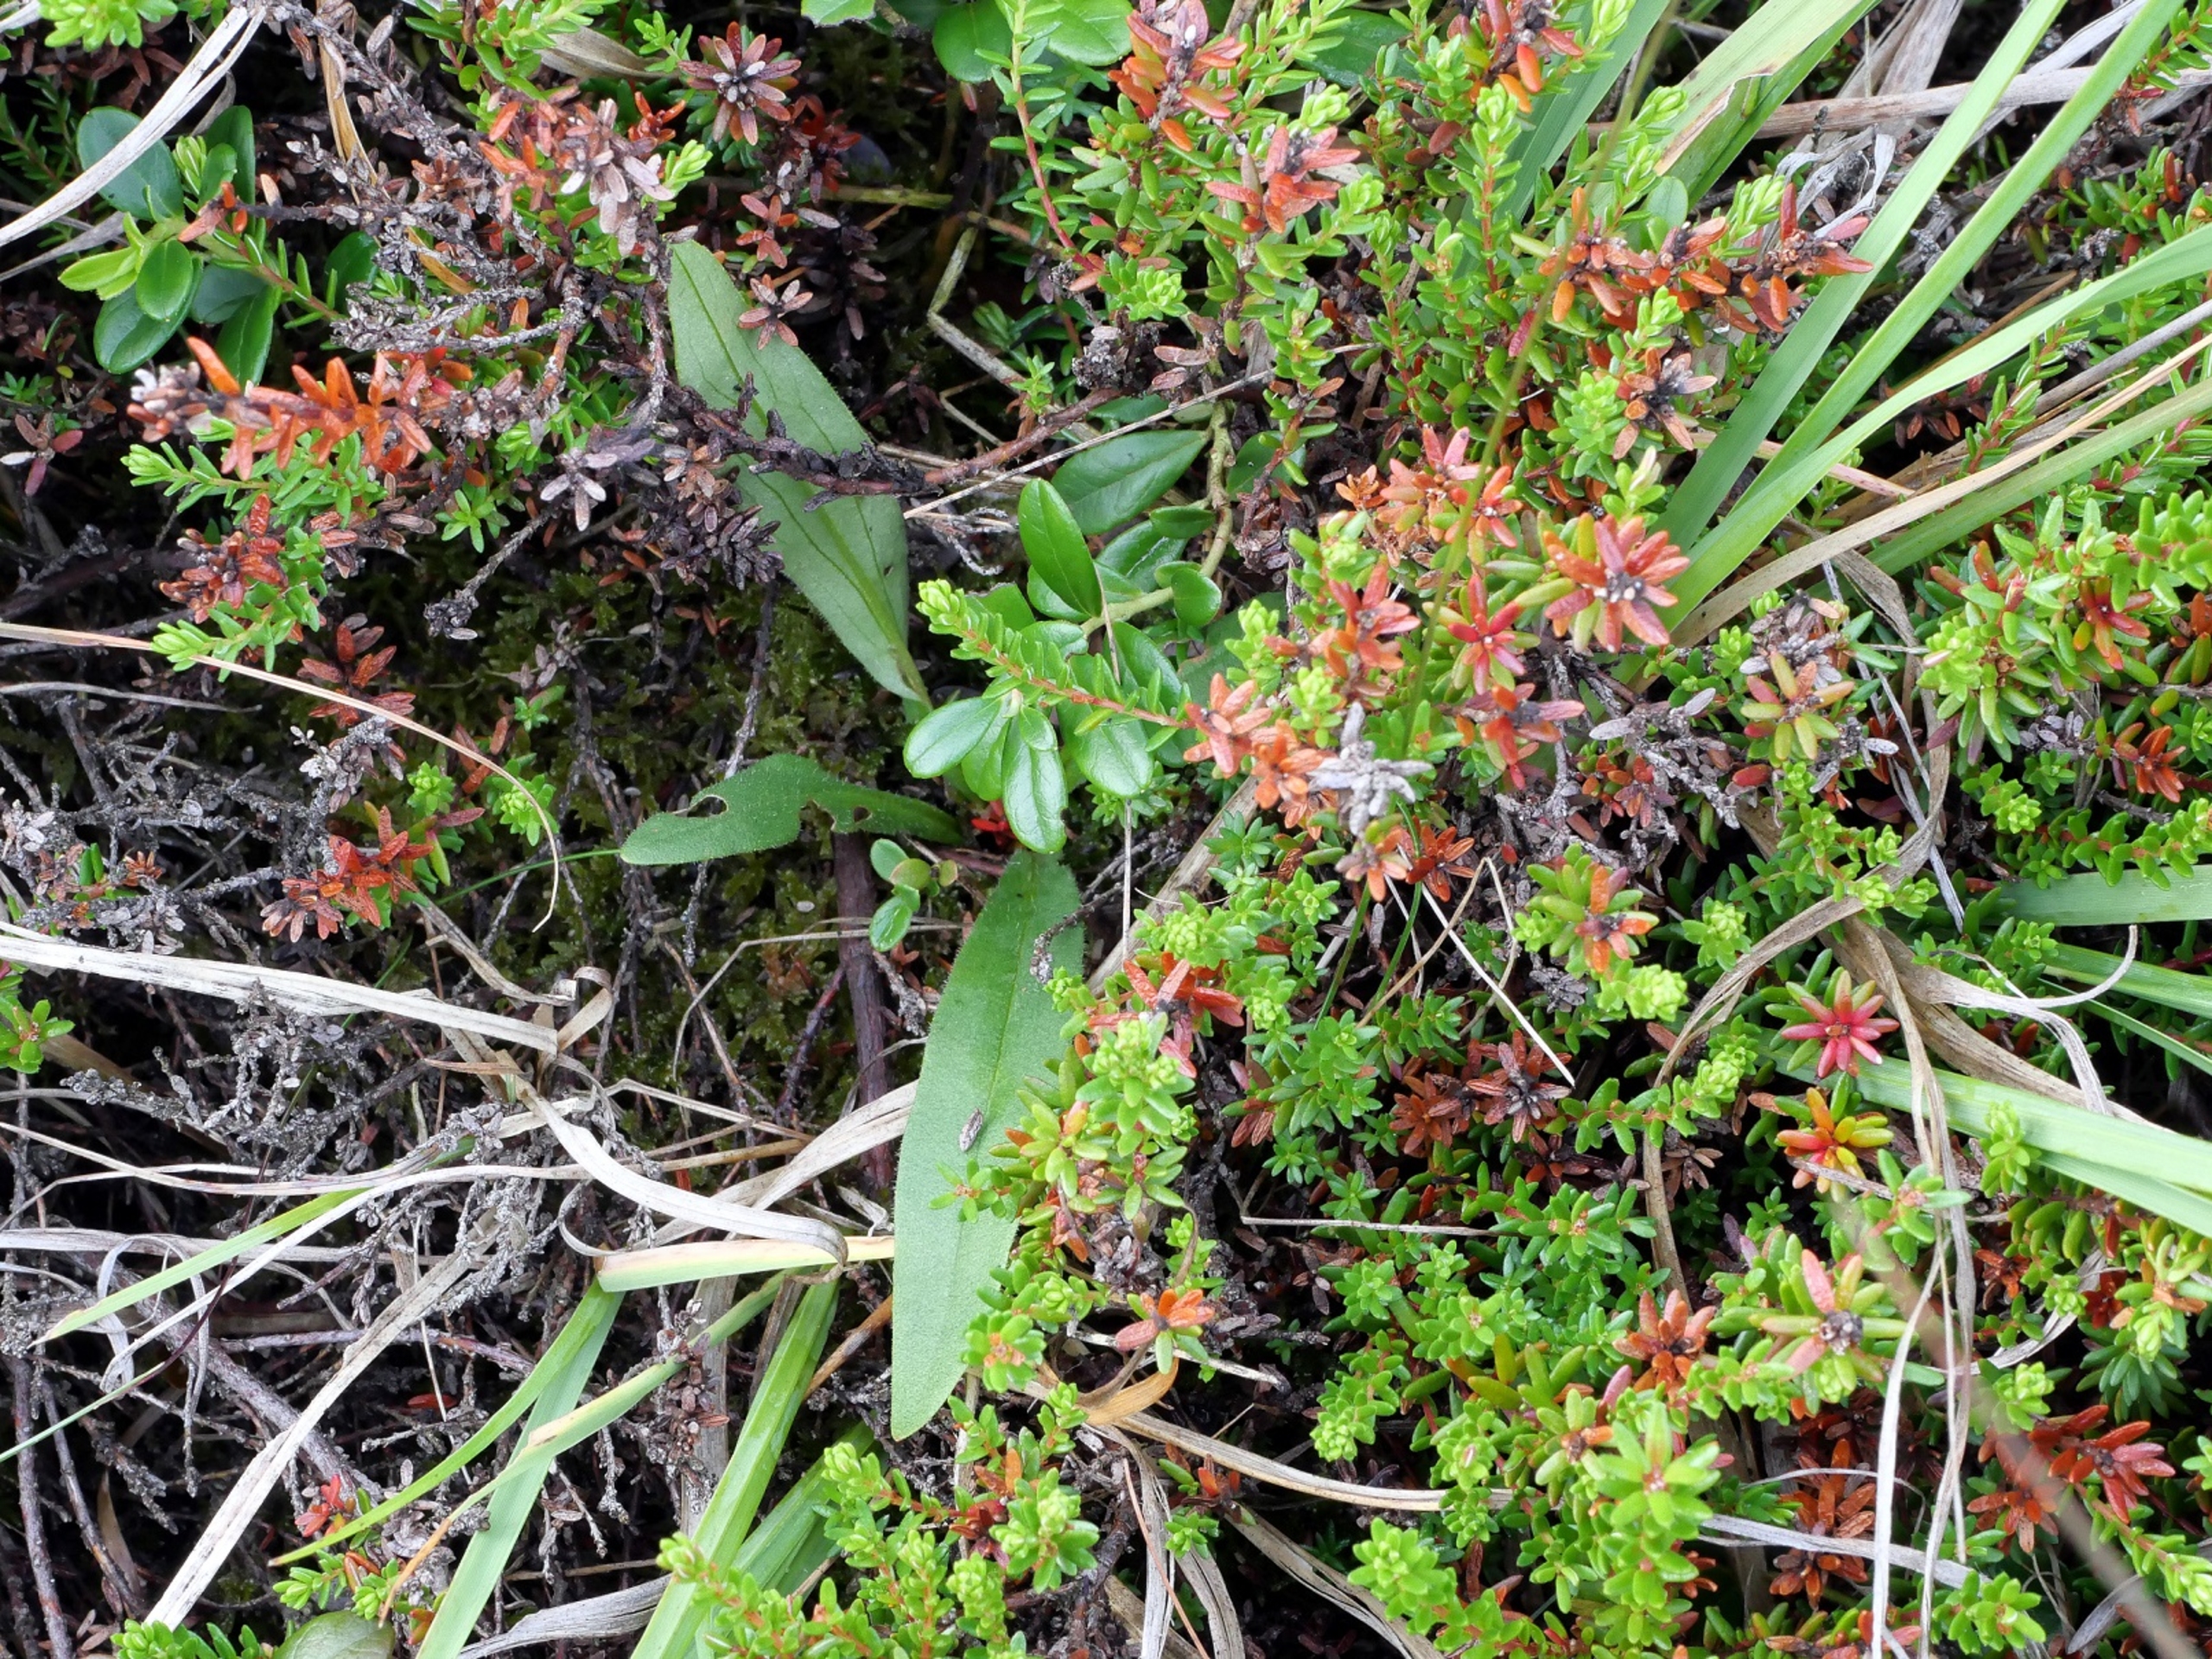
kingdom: Plantae
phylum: Tracheophyta
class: Magnoliopsida
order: Asterales
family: Asteraceae
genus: Arnica
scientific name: Arnica montana
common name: Guldblomme
